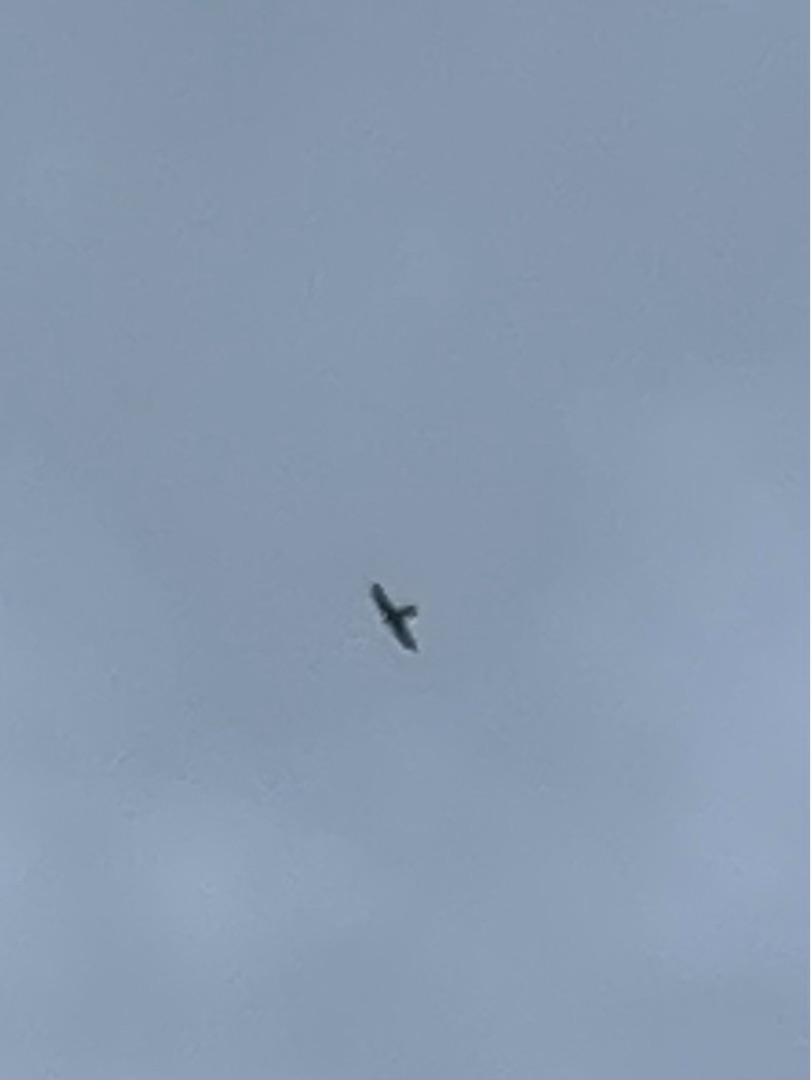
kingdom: Animalia
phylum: Chordata
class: Aves
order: Falconiformes
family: Falconidae
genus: Falco
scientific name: Falco tinnunculus
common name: Tårnfalk
